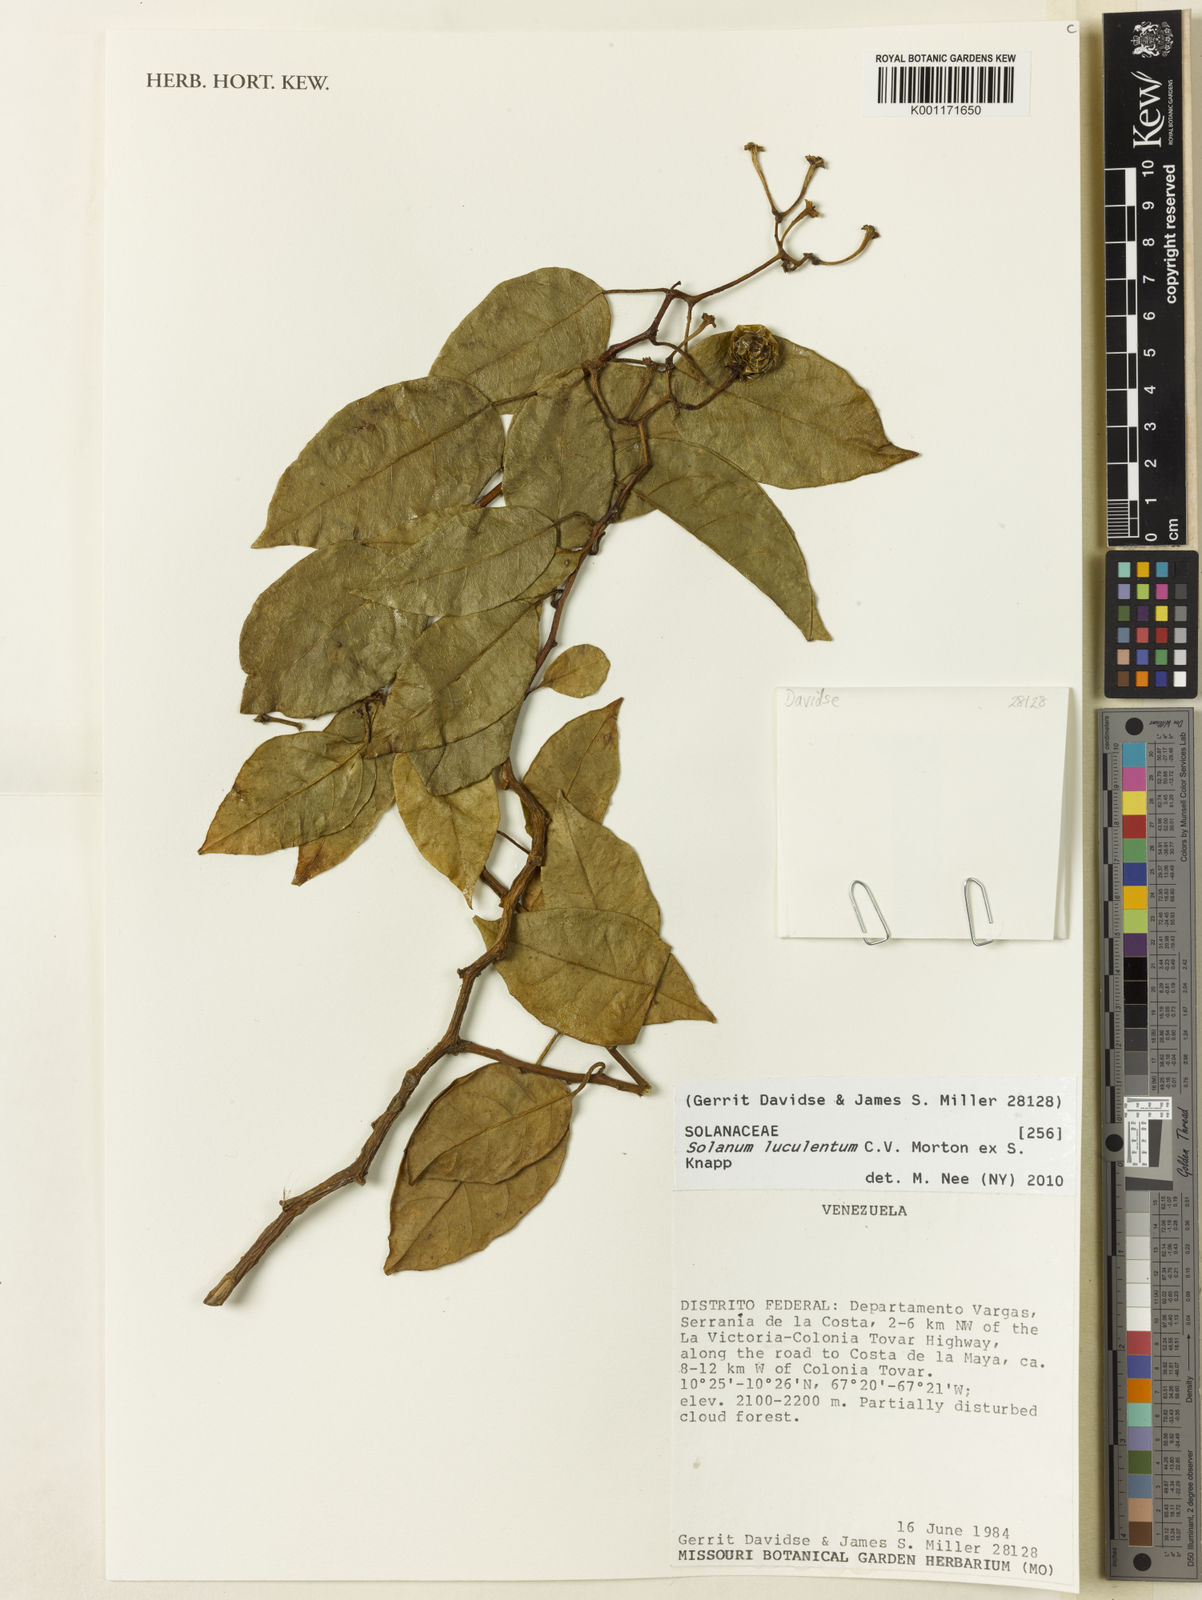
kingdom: Plantae
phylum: Tracheophyta
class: Magnoliopsida
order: Solanales
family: Solanaceae
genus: Solanum
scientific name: Solanum luculentum
